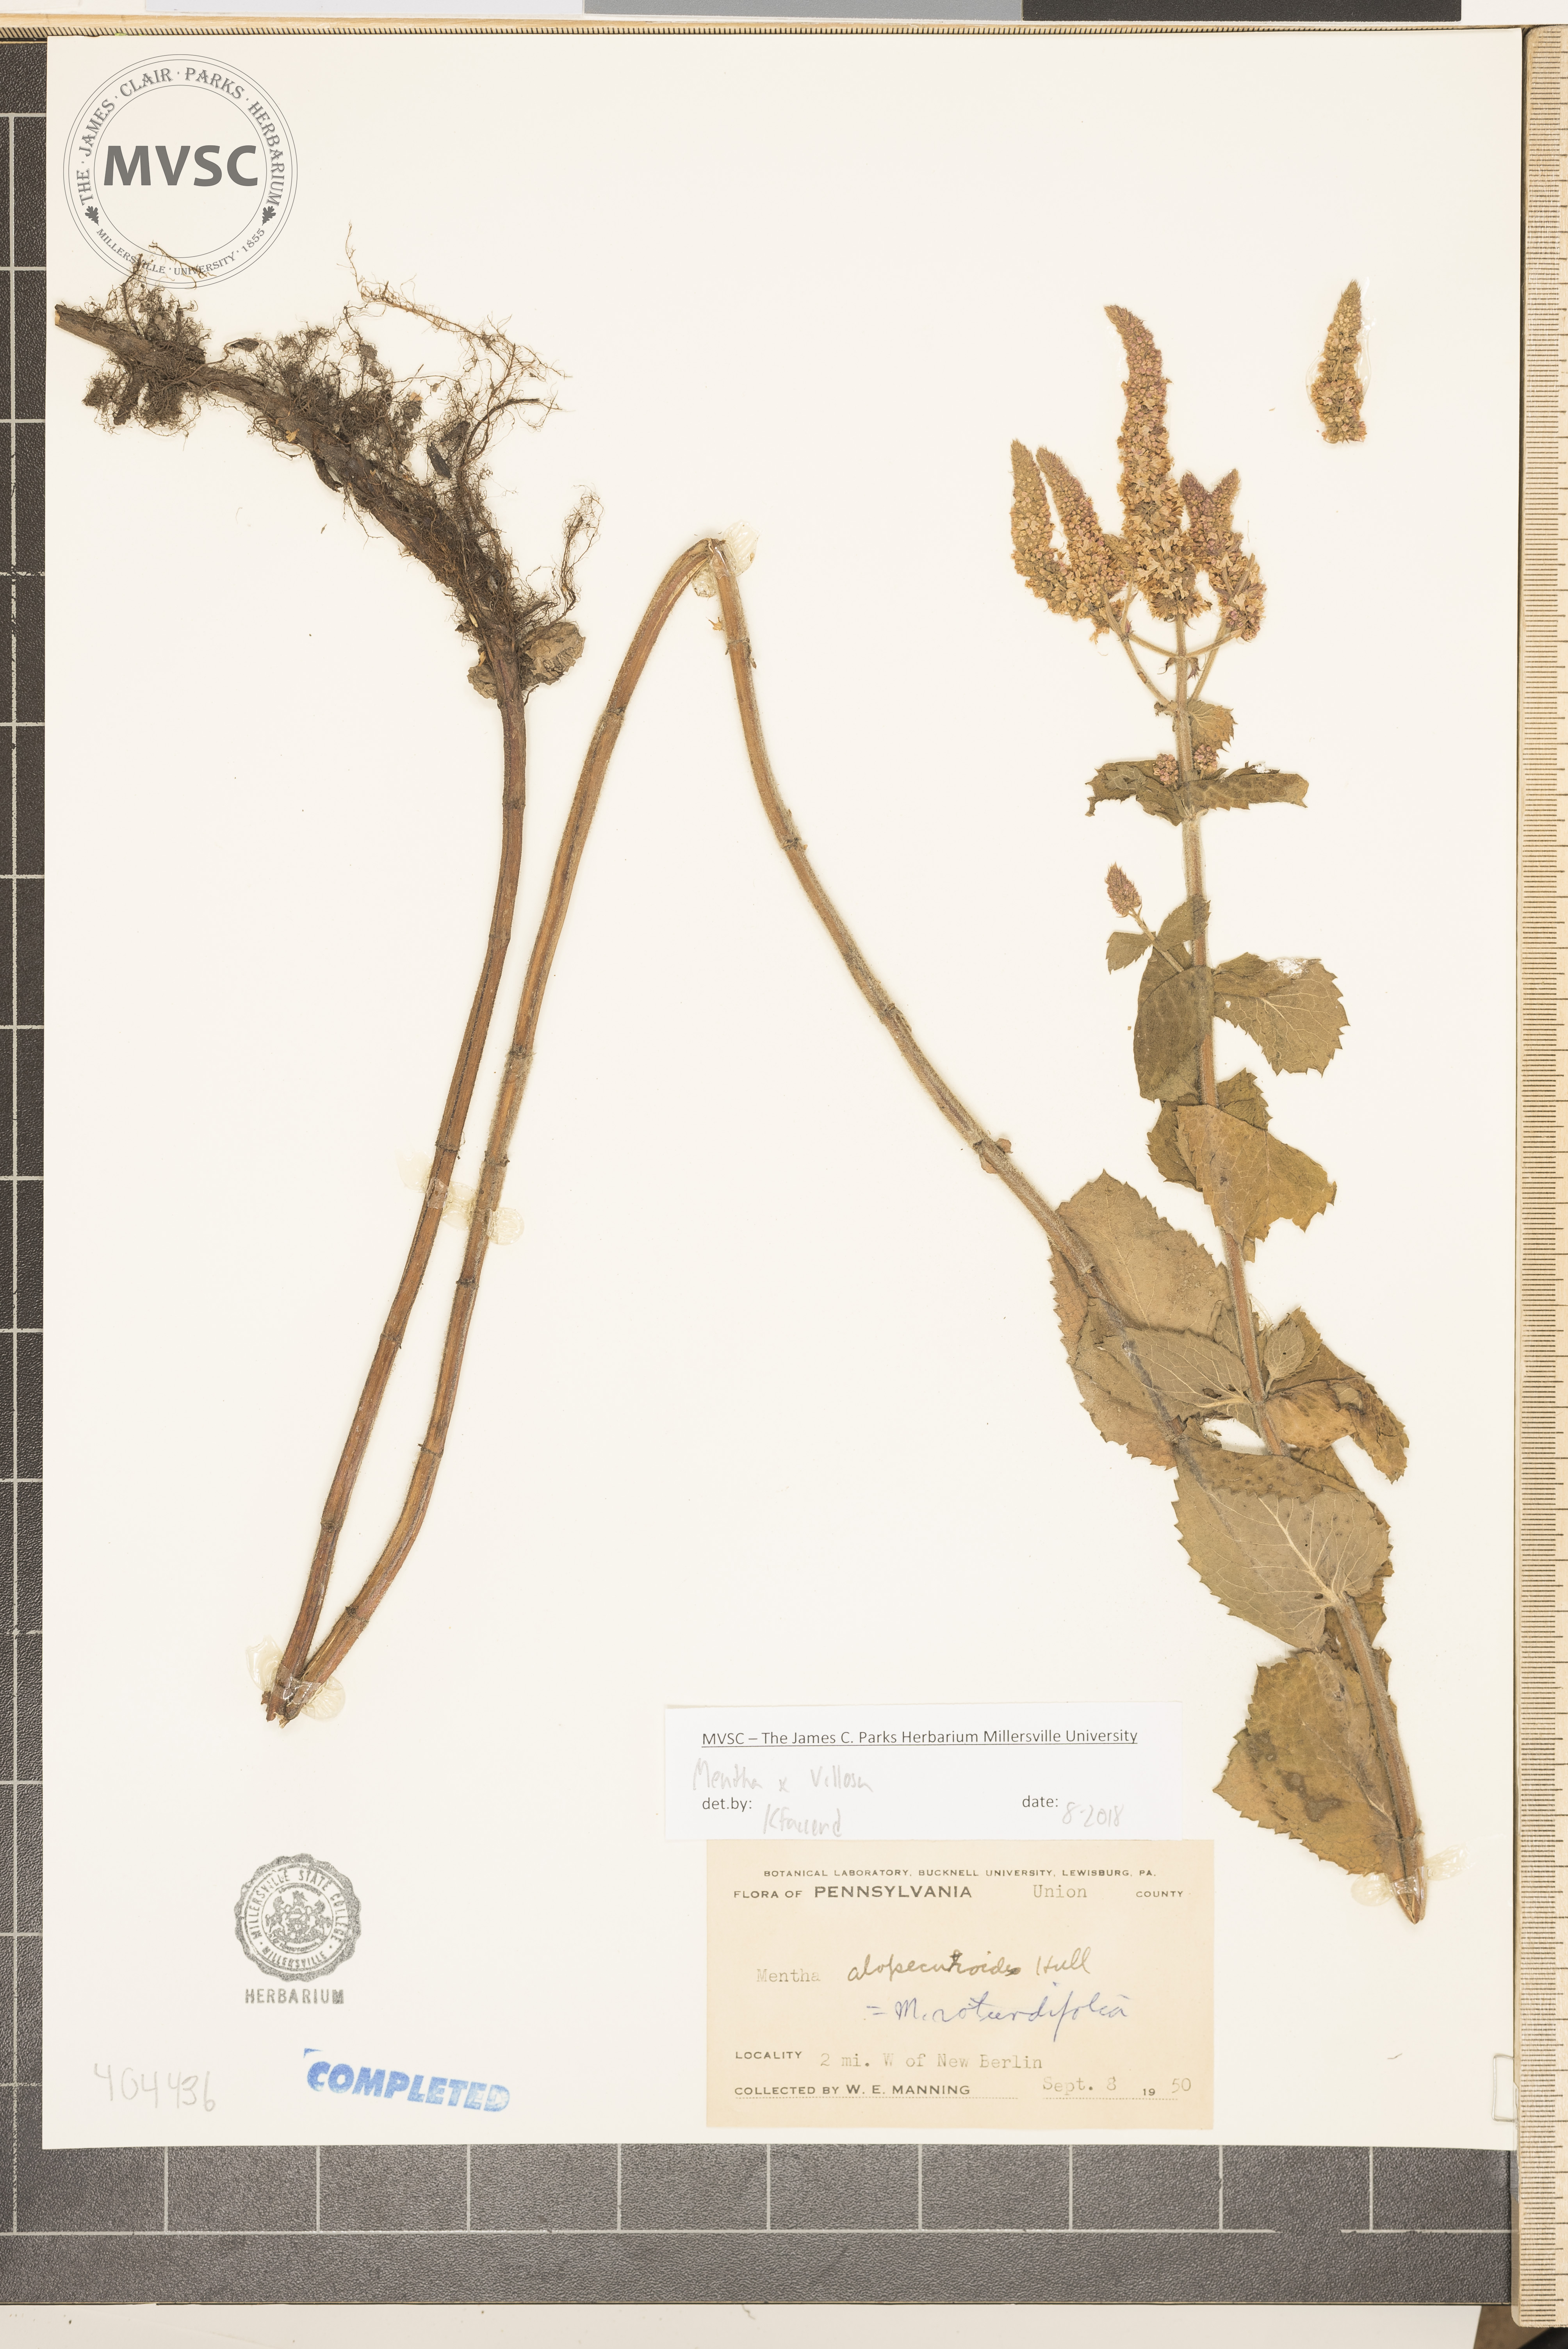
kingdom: Plantae
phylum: Tracheophyta
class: Magnoliopsida
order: Lamiales
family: Lamiaceae
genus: Mentha
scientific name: Mentha villosa
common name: Apple mint
